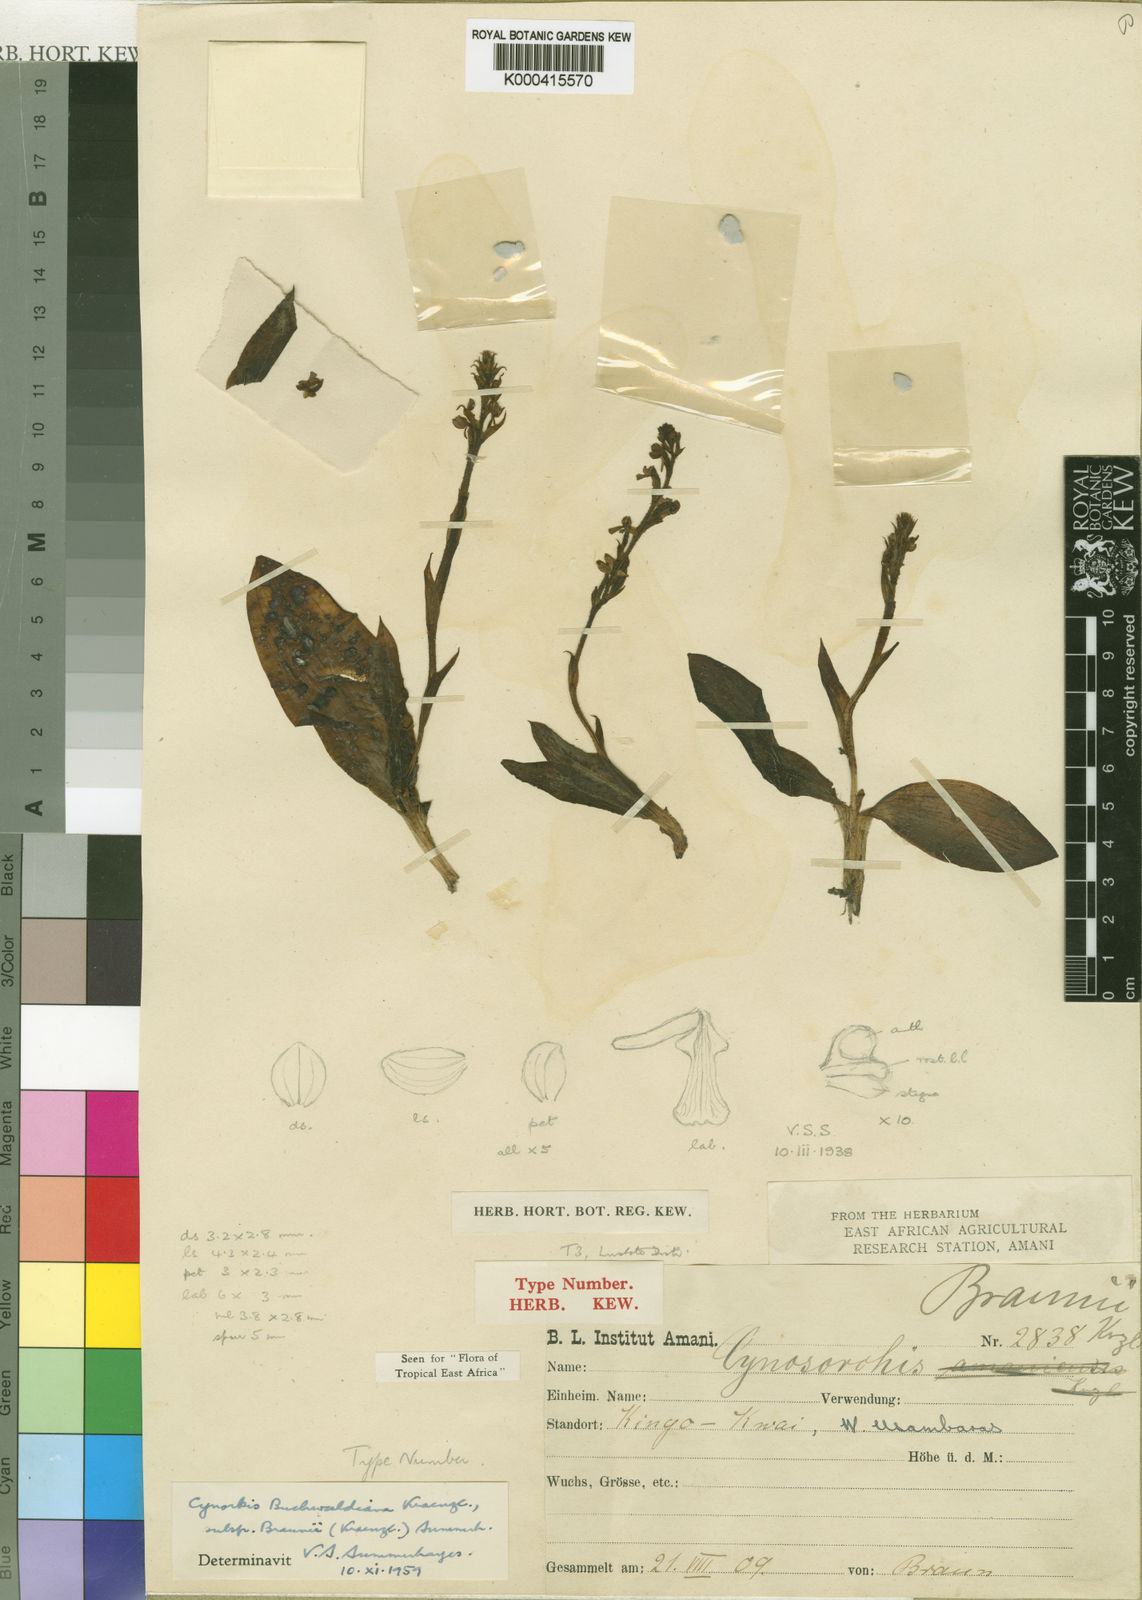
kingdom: Plantae
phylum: Tracheophyta
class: Liliopsida
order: Asparagales
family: Orchidaceae
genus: Cynorkis
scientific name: Cynorkis buchwaldiana
